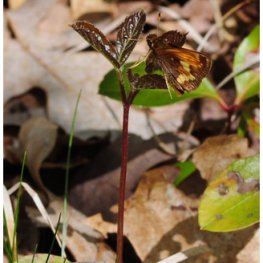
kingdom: Animalia
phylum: Arthropoda
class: Insecta
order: Lepidoptera
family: Hesperiidae
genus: Lon
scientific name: Lon hobomok
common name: Hobomok Skipper
